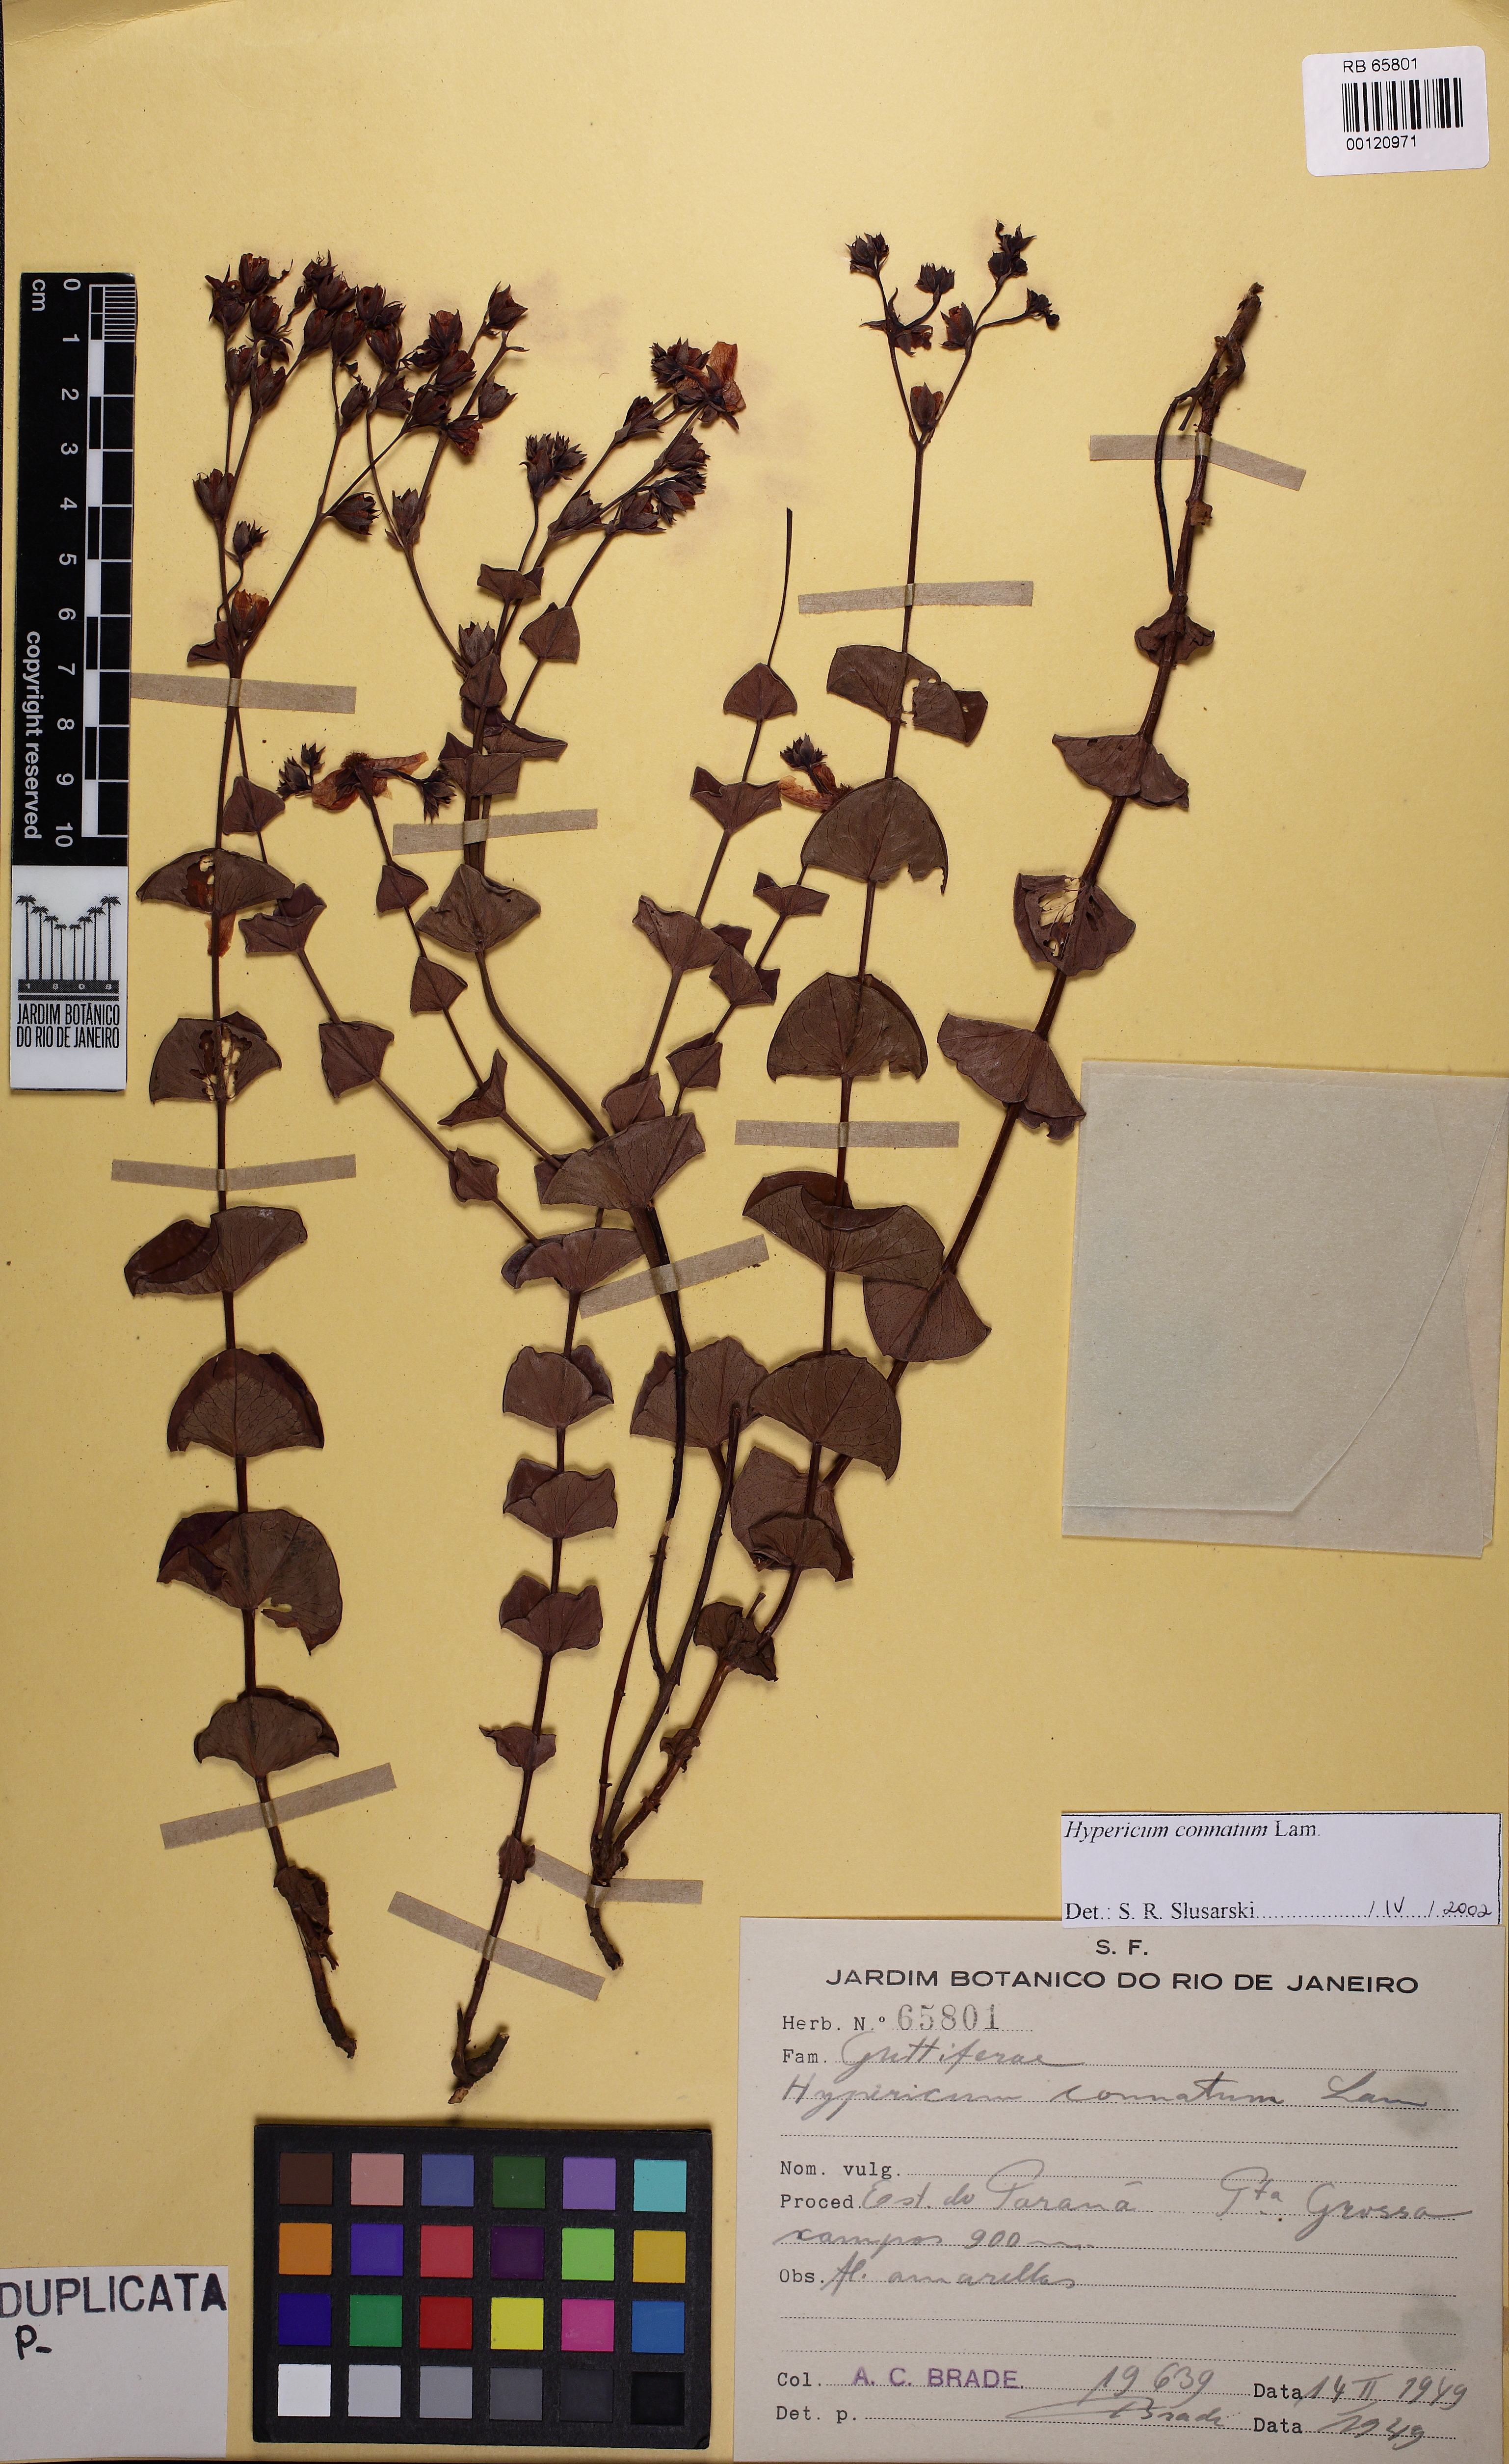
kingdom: Plantae
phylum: Tracheophyta
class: Magnoliopsida
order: Malpighiales
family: Hypericaceae
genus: Hypericum
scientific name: Hypericum connatum
